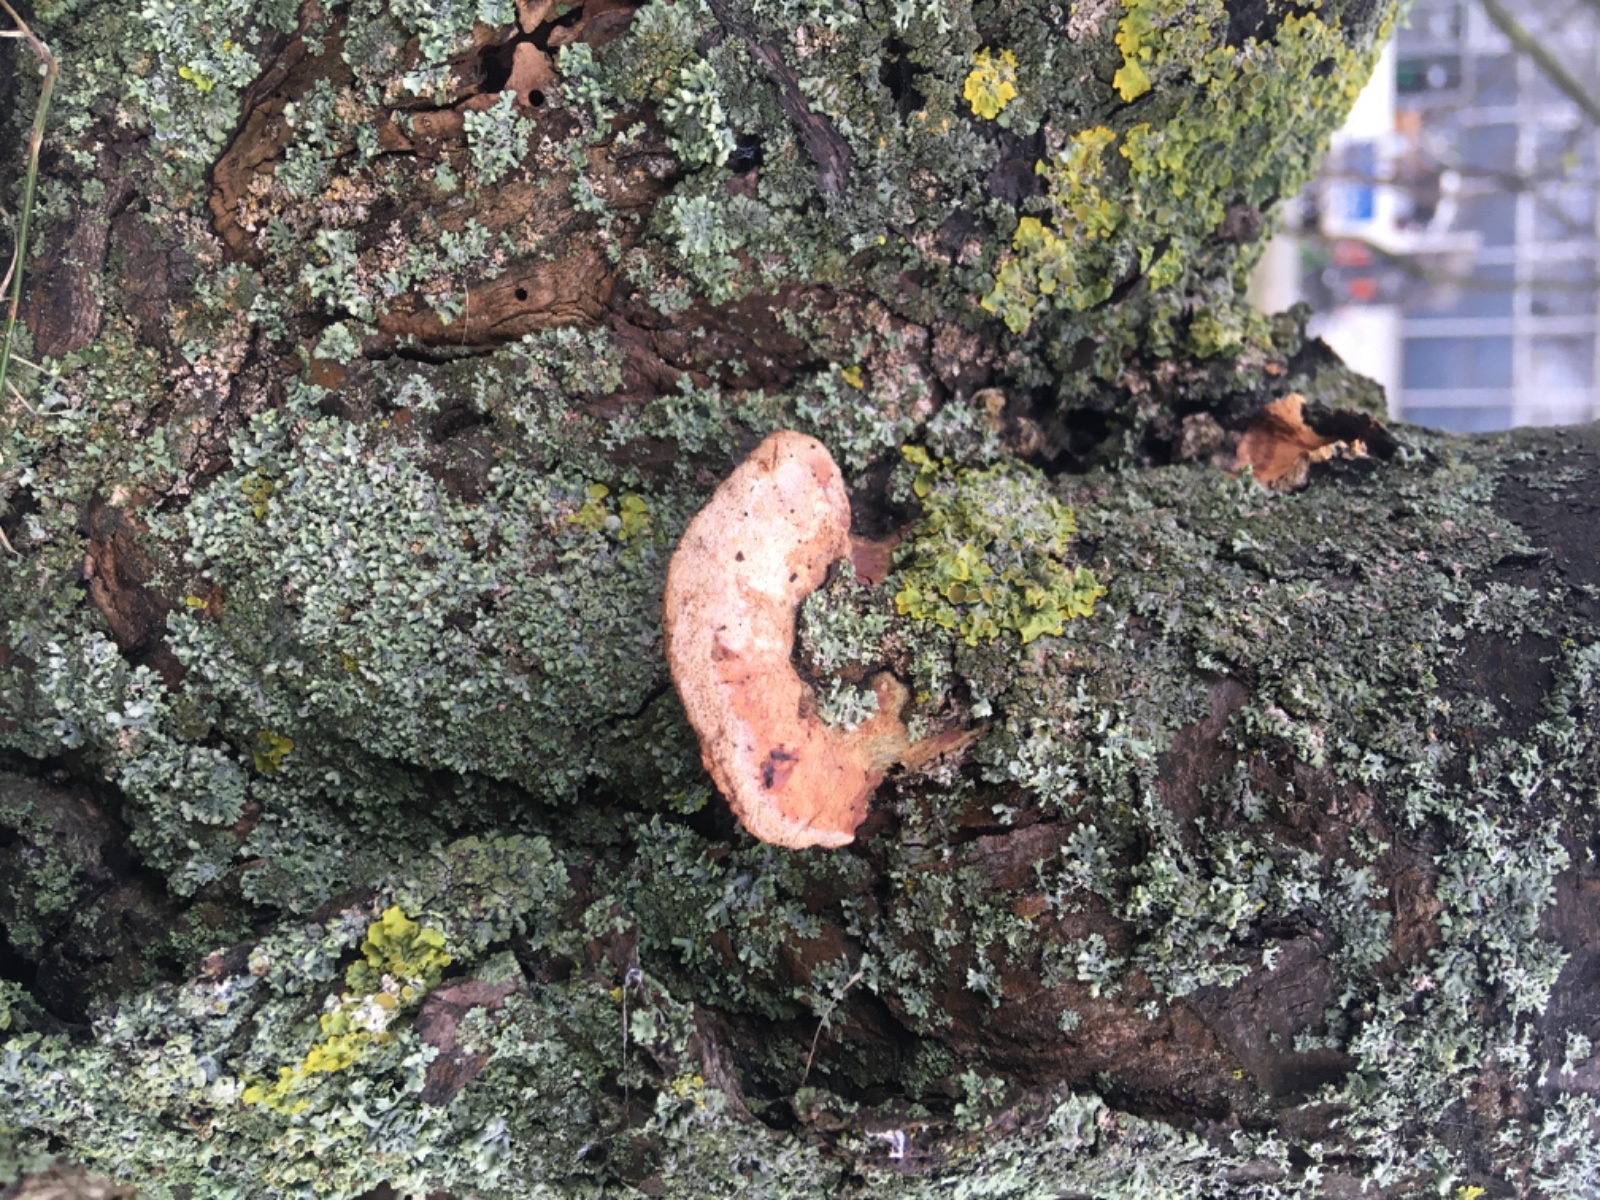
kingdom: Fungi
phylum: Basidiomycota
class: Agaricomycetes
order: Polyporales
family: Phanerochaetaceae
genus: Hapalopilus
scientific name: Hapalopilus rutilans
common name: rødlig okkerporesvamp
